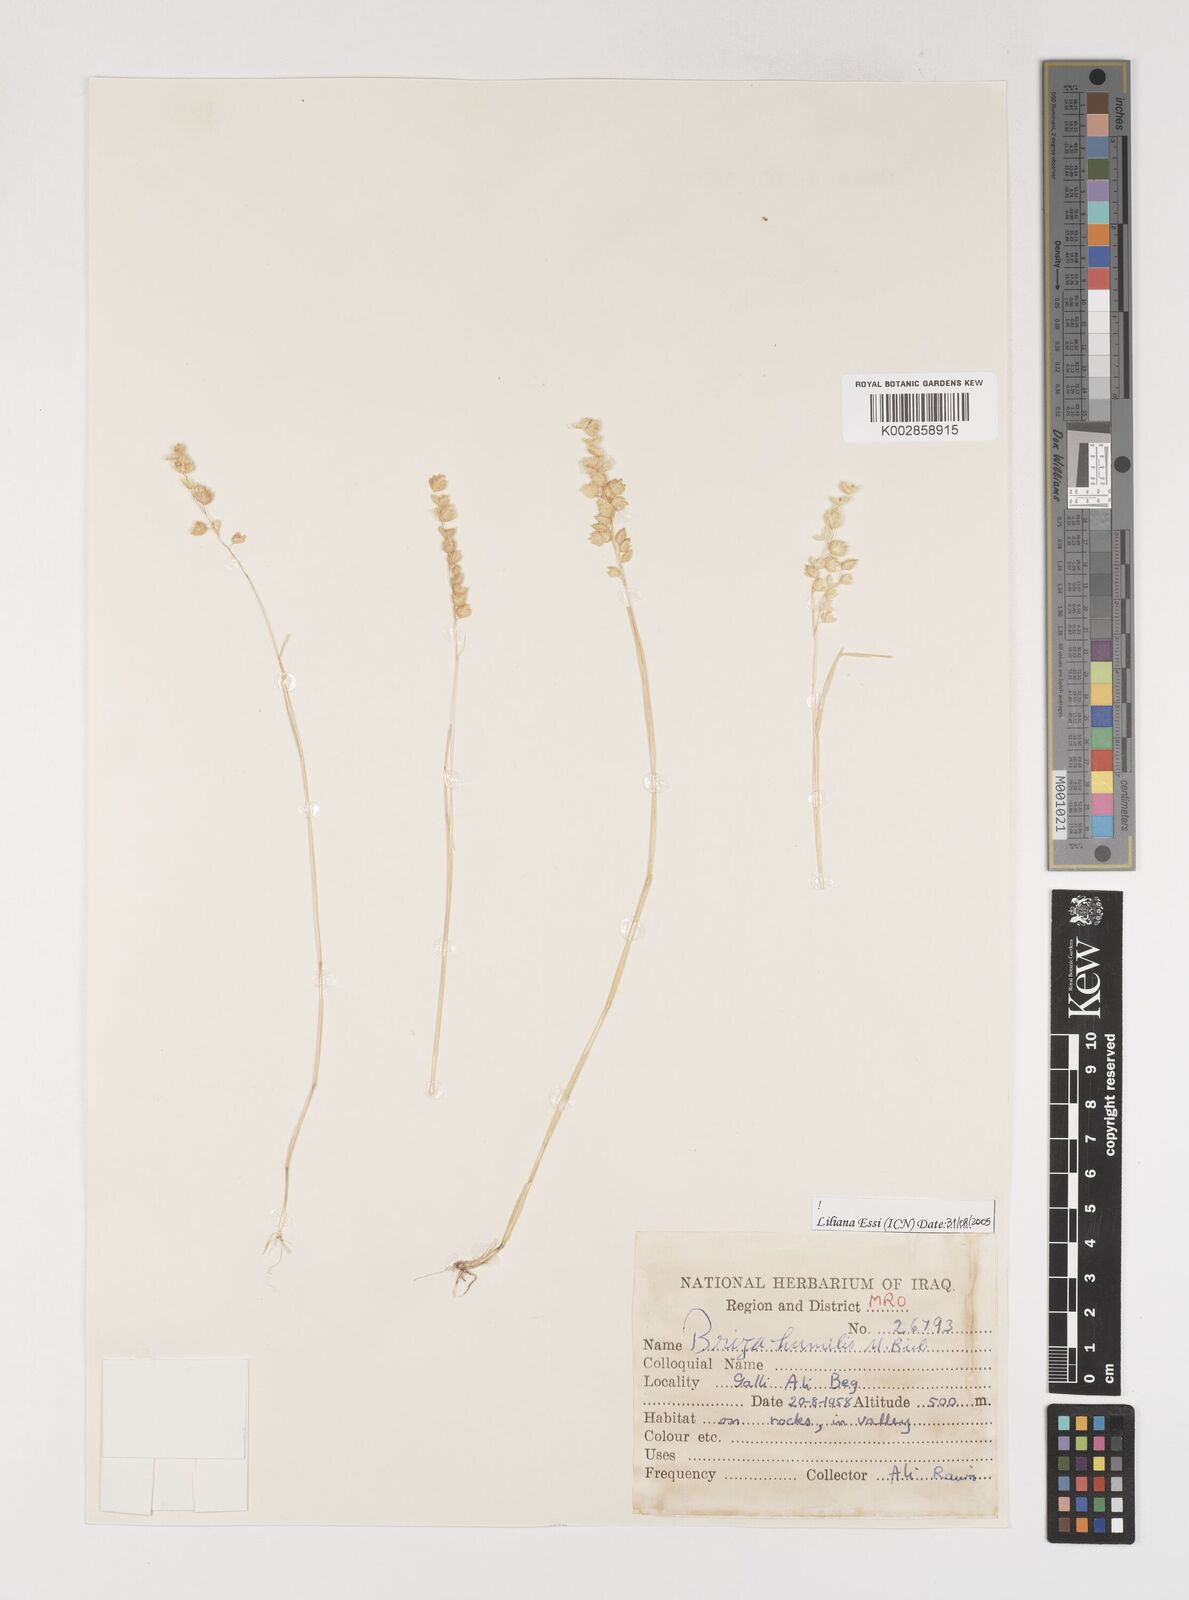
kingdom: Plantae
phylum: Tracheophyta
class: Liliopsida
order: Poales
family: Poaceae
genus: Briza
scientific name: Briza humilis
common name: Spiked quaking grass
